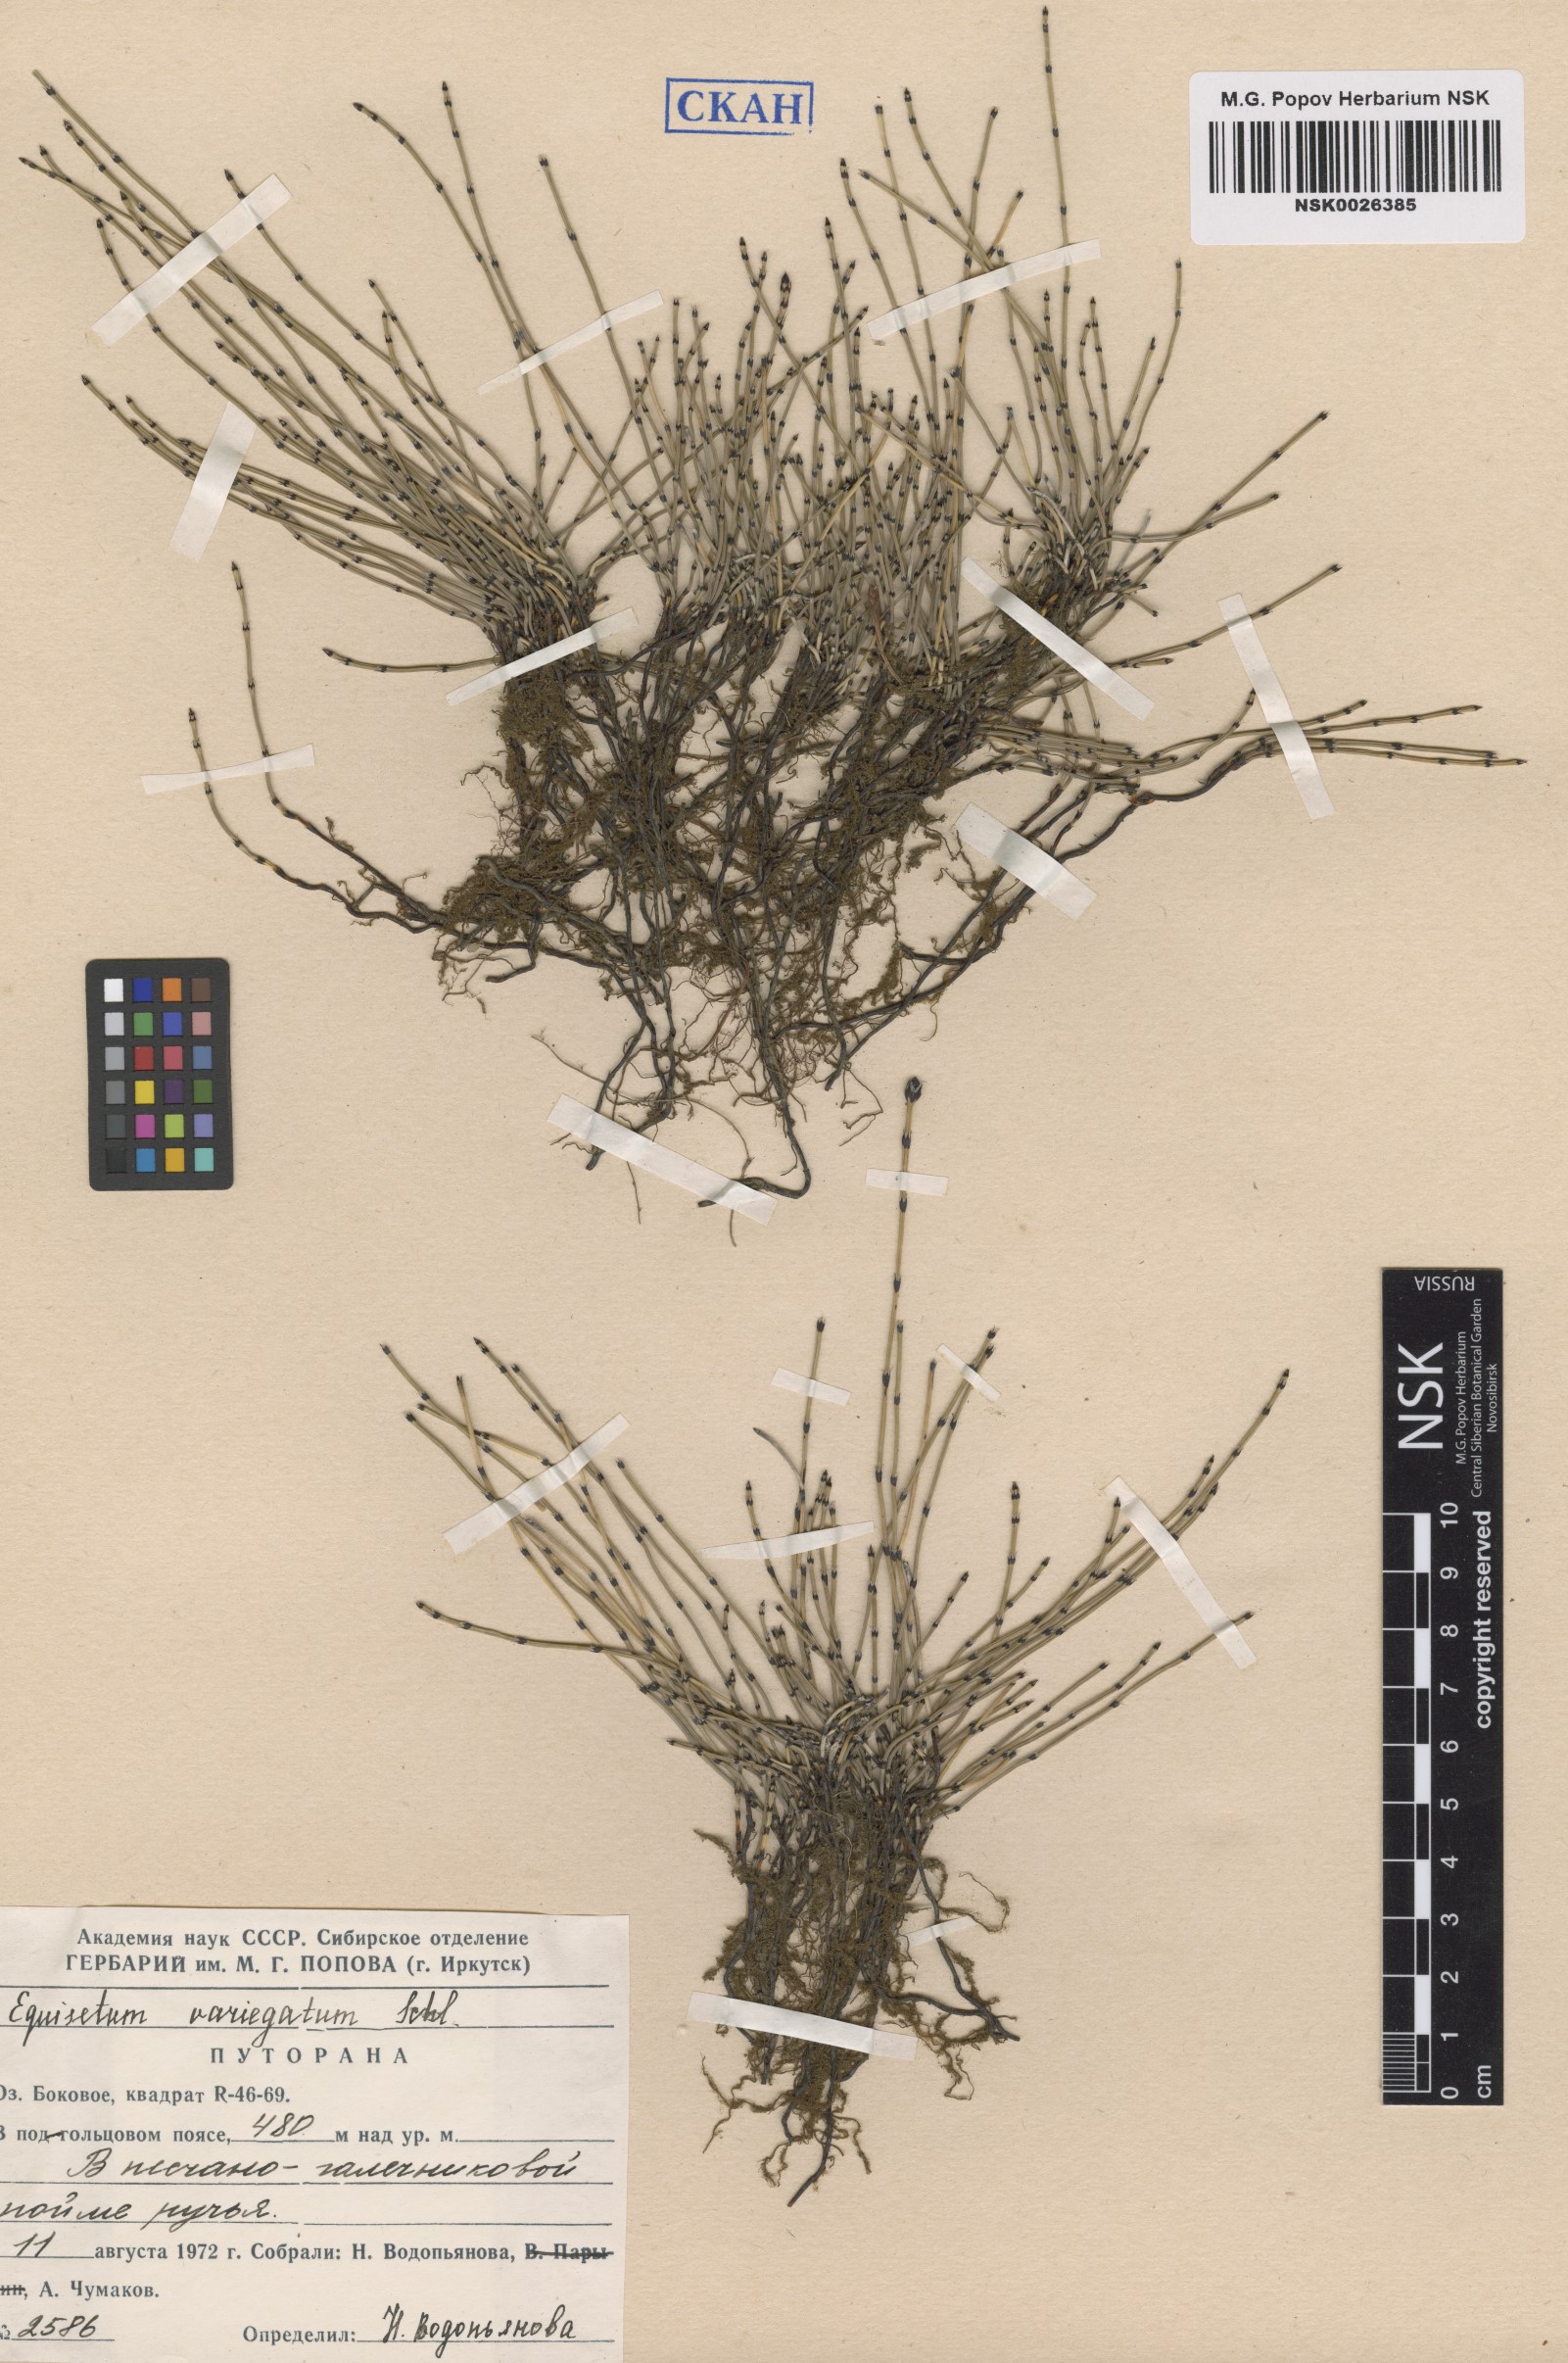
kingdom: Plantae
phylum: Tracheophyta
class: Polypodiopsida
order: Equisetales
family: Equisetaceae
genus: Equisetum
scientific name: Equisetum variegatum
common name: Variegated horsetail
